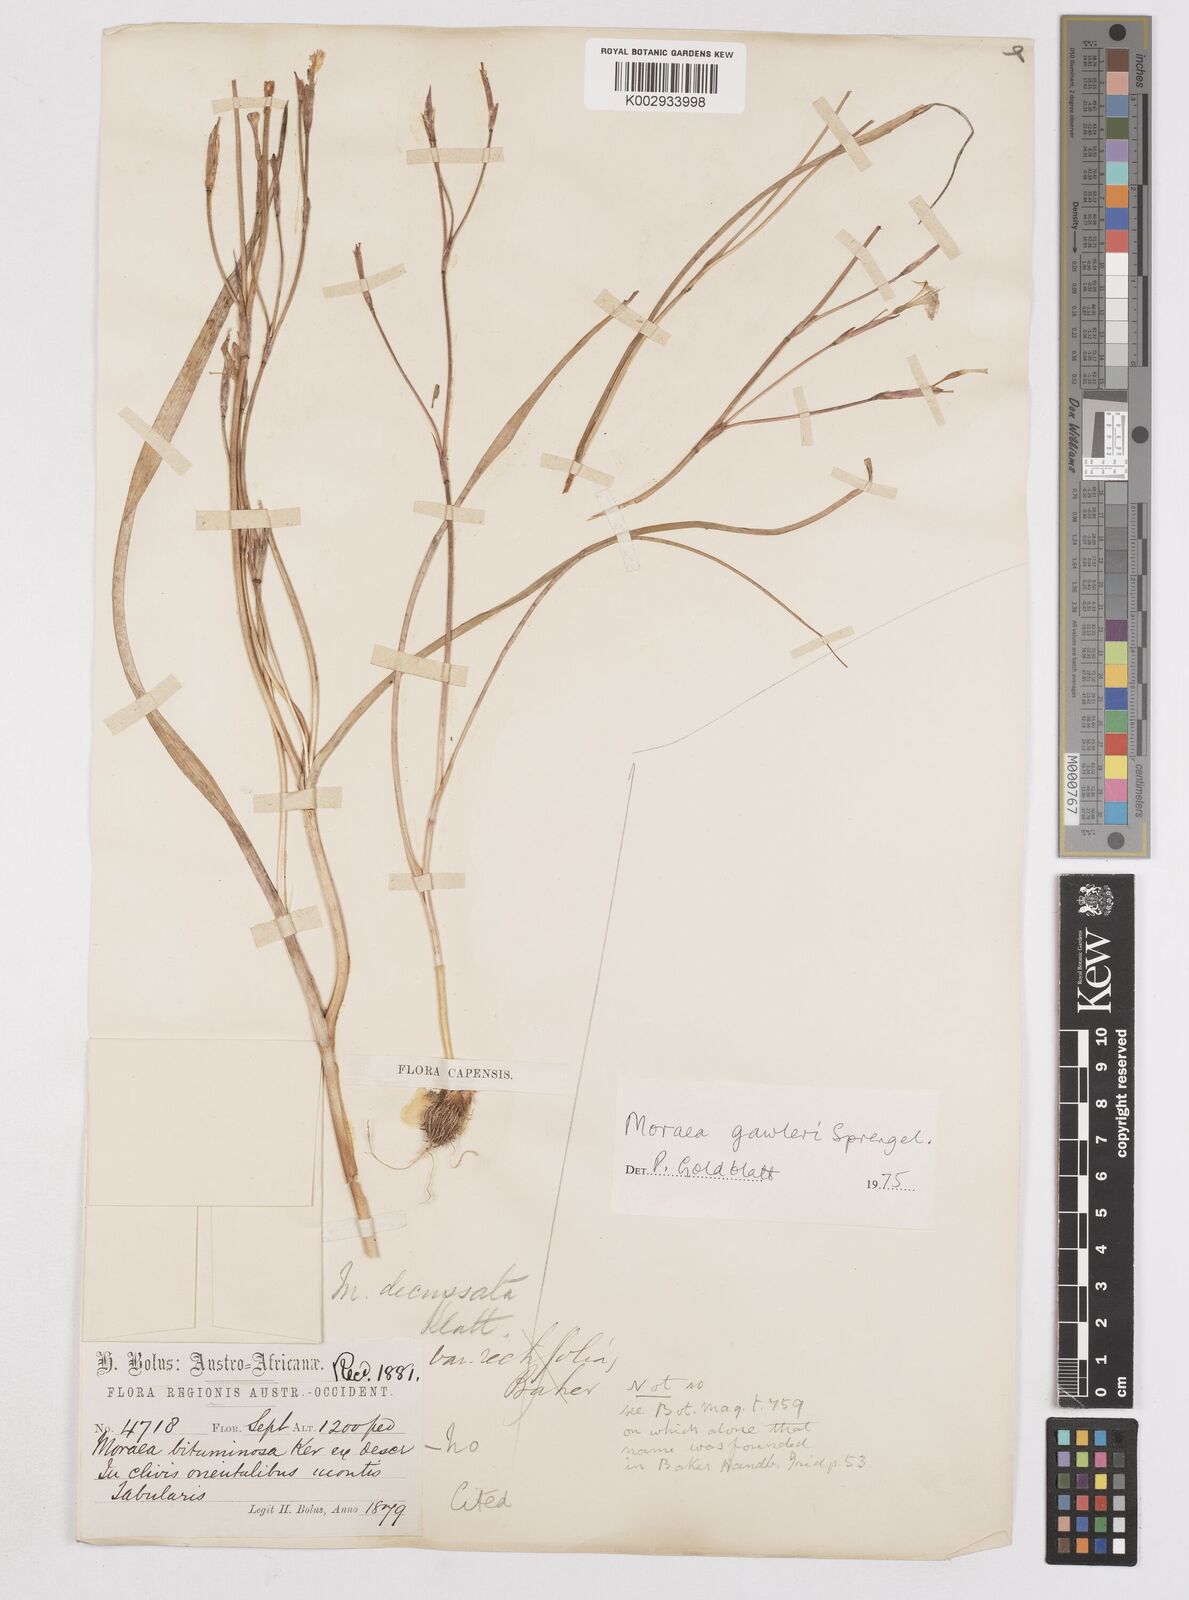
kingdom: Plantae
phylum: Tracheophyta
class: Liliopsida
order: Asparagales
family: Iridaceae
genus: Moraea
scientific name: Moraea gawleri
